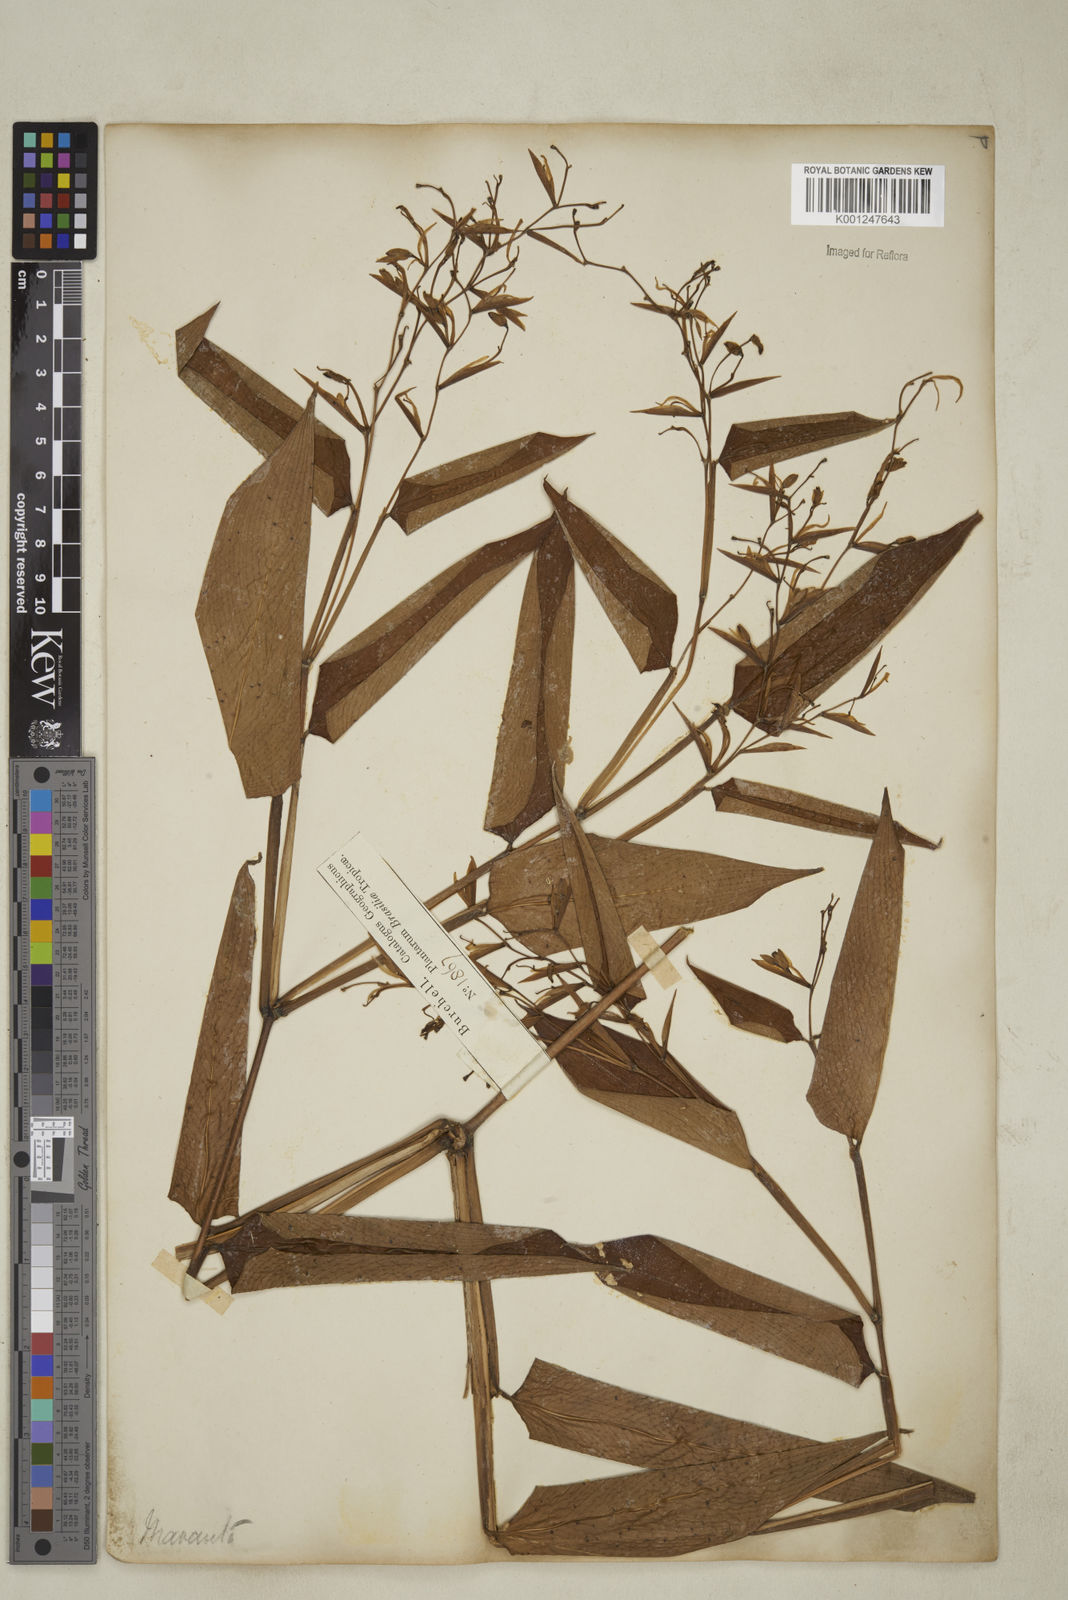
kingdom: Plantae
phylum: Tracheophyta
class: Liliopsida
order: Zingiberales
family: Marantaceae
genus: Stromanthe
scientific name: Stromanthe tonckat
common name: Stromanthe
